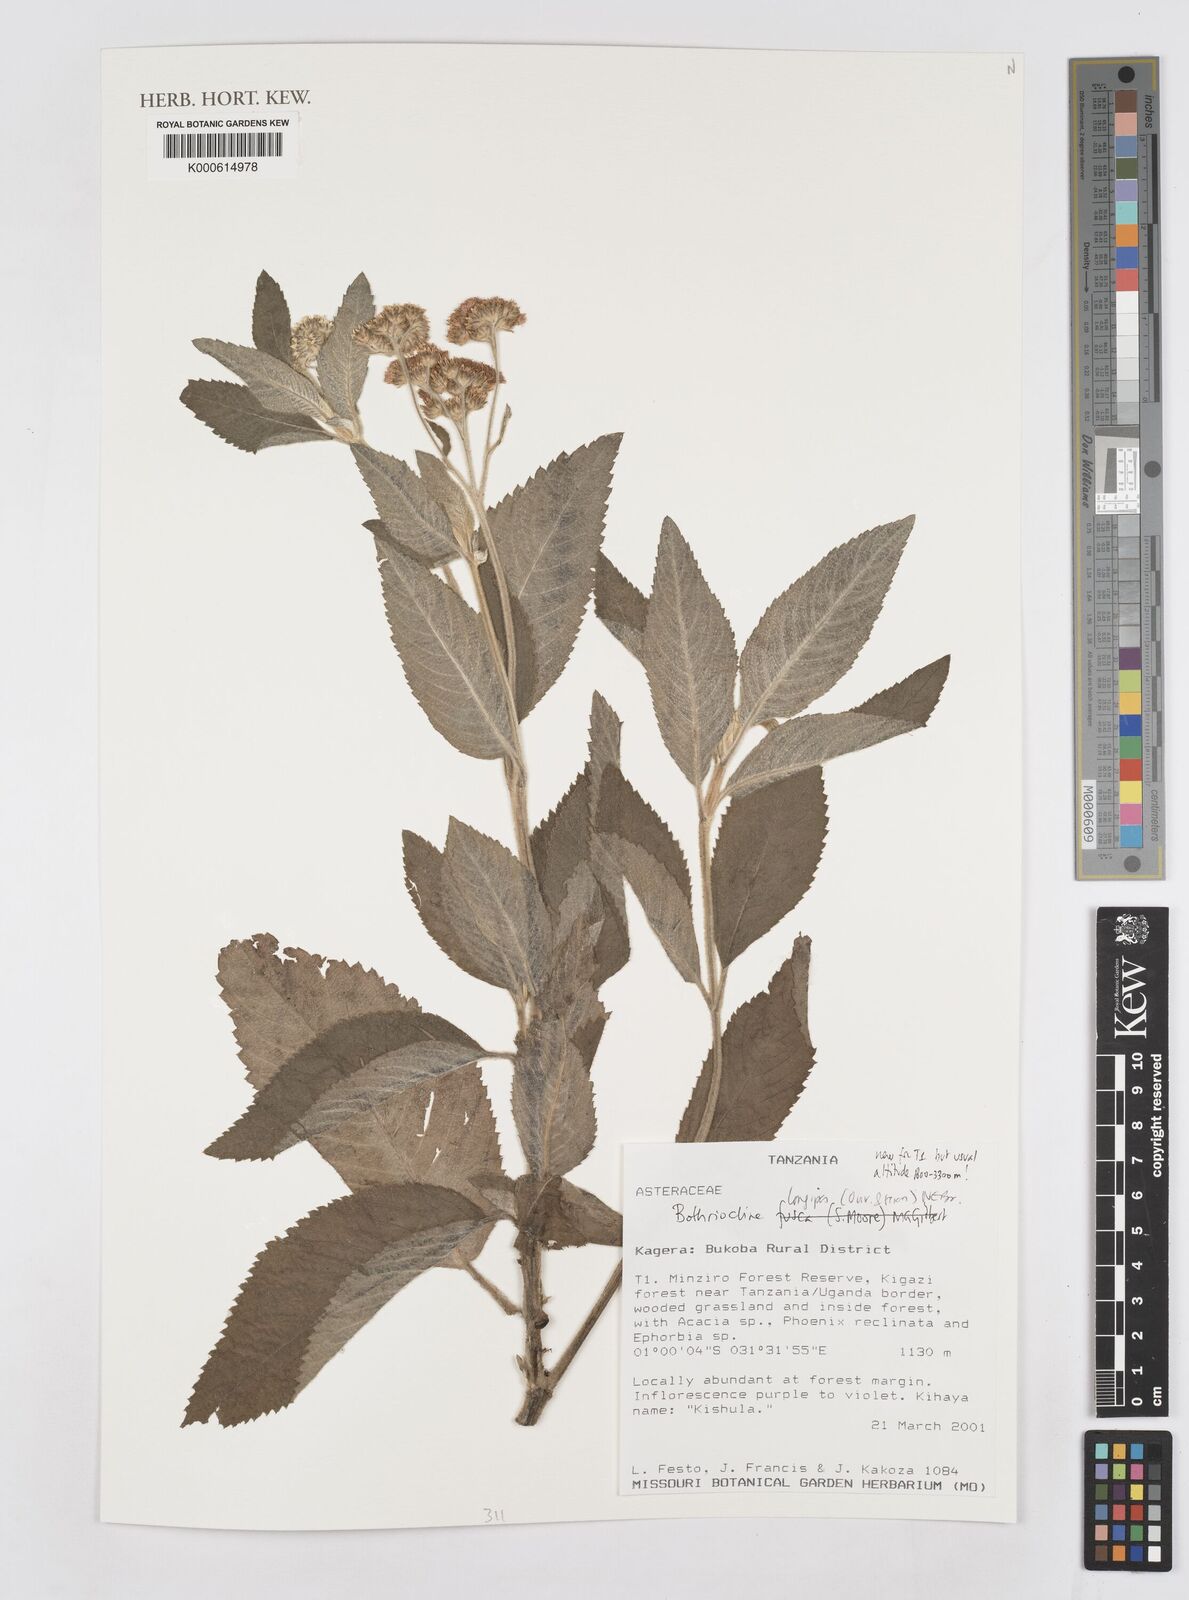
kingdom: Plantae
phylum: Tracheophyta
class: Magnoliopsida
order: Asterales
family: Asteraceae
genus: Bothriocline
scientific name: Bothriocline longipes
